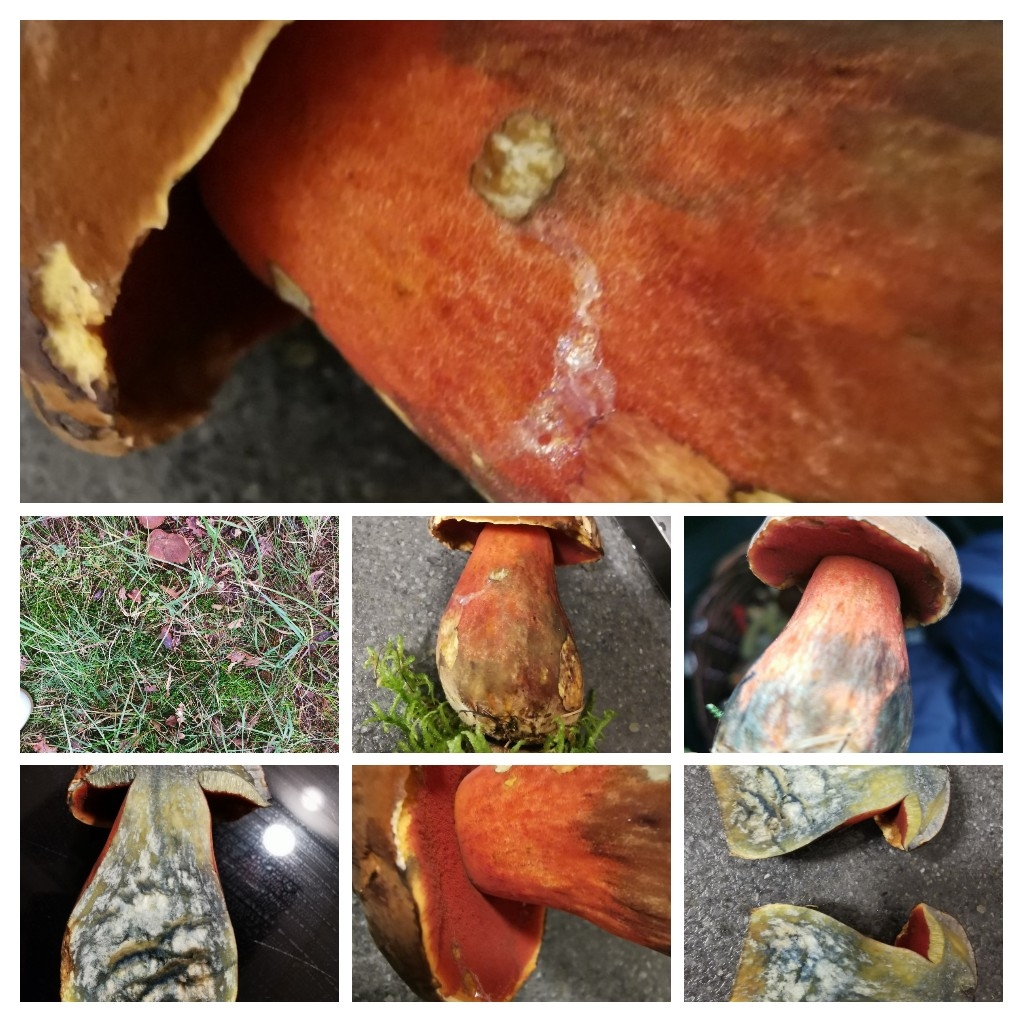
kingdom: Fungi
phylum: Basidiomycota
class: Agaricomycetes
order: Boletales
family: Boletaceae
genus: Neoboletus
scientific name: Neoboletus erythropus
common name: punktstokket indigorørhat
